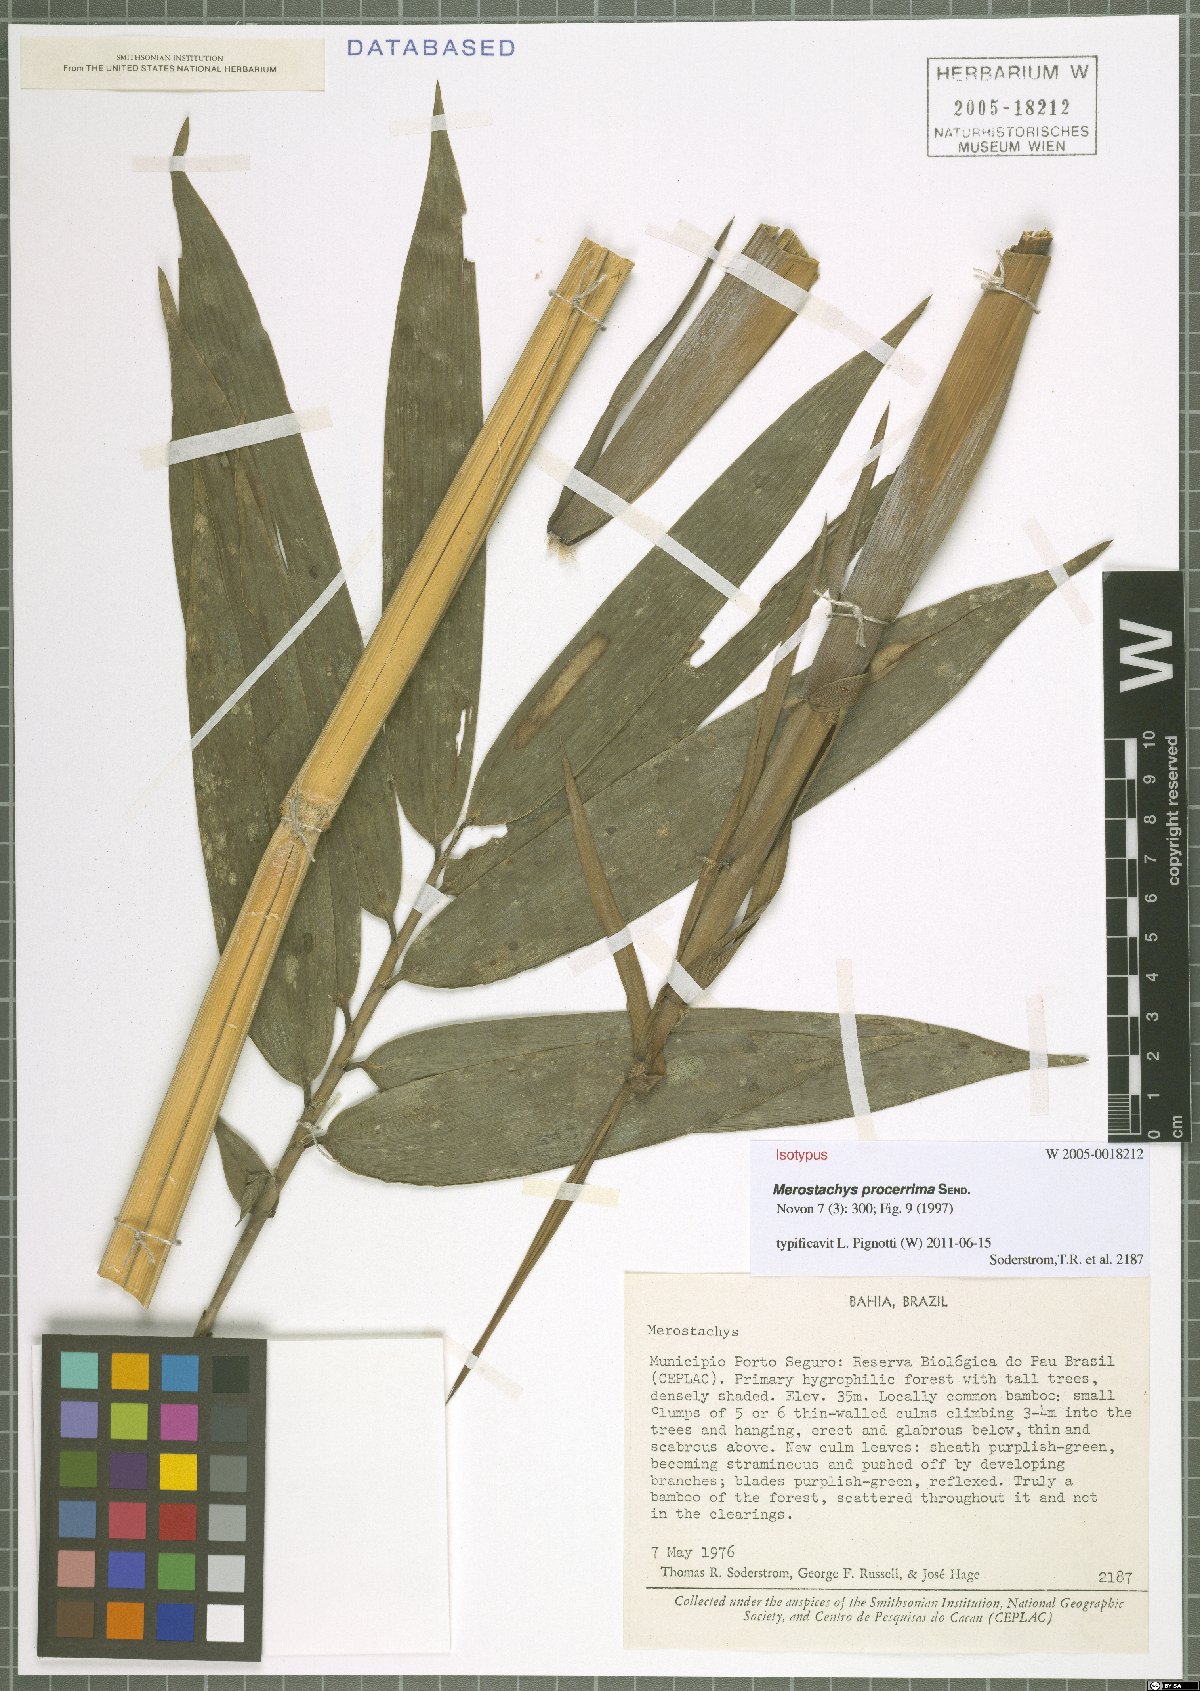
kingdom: Plantae
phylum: Tracheophyta
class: Liliopsida
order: Poales
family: Poaceae
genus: Merostachys
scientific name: Merostachys procerrima
